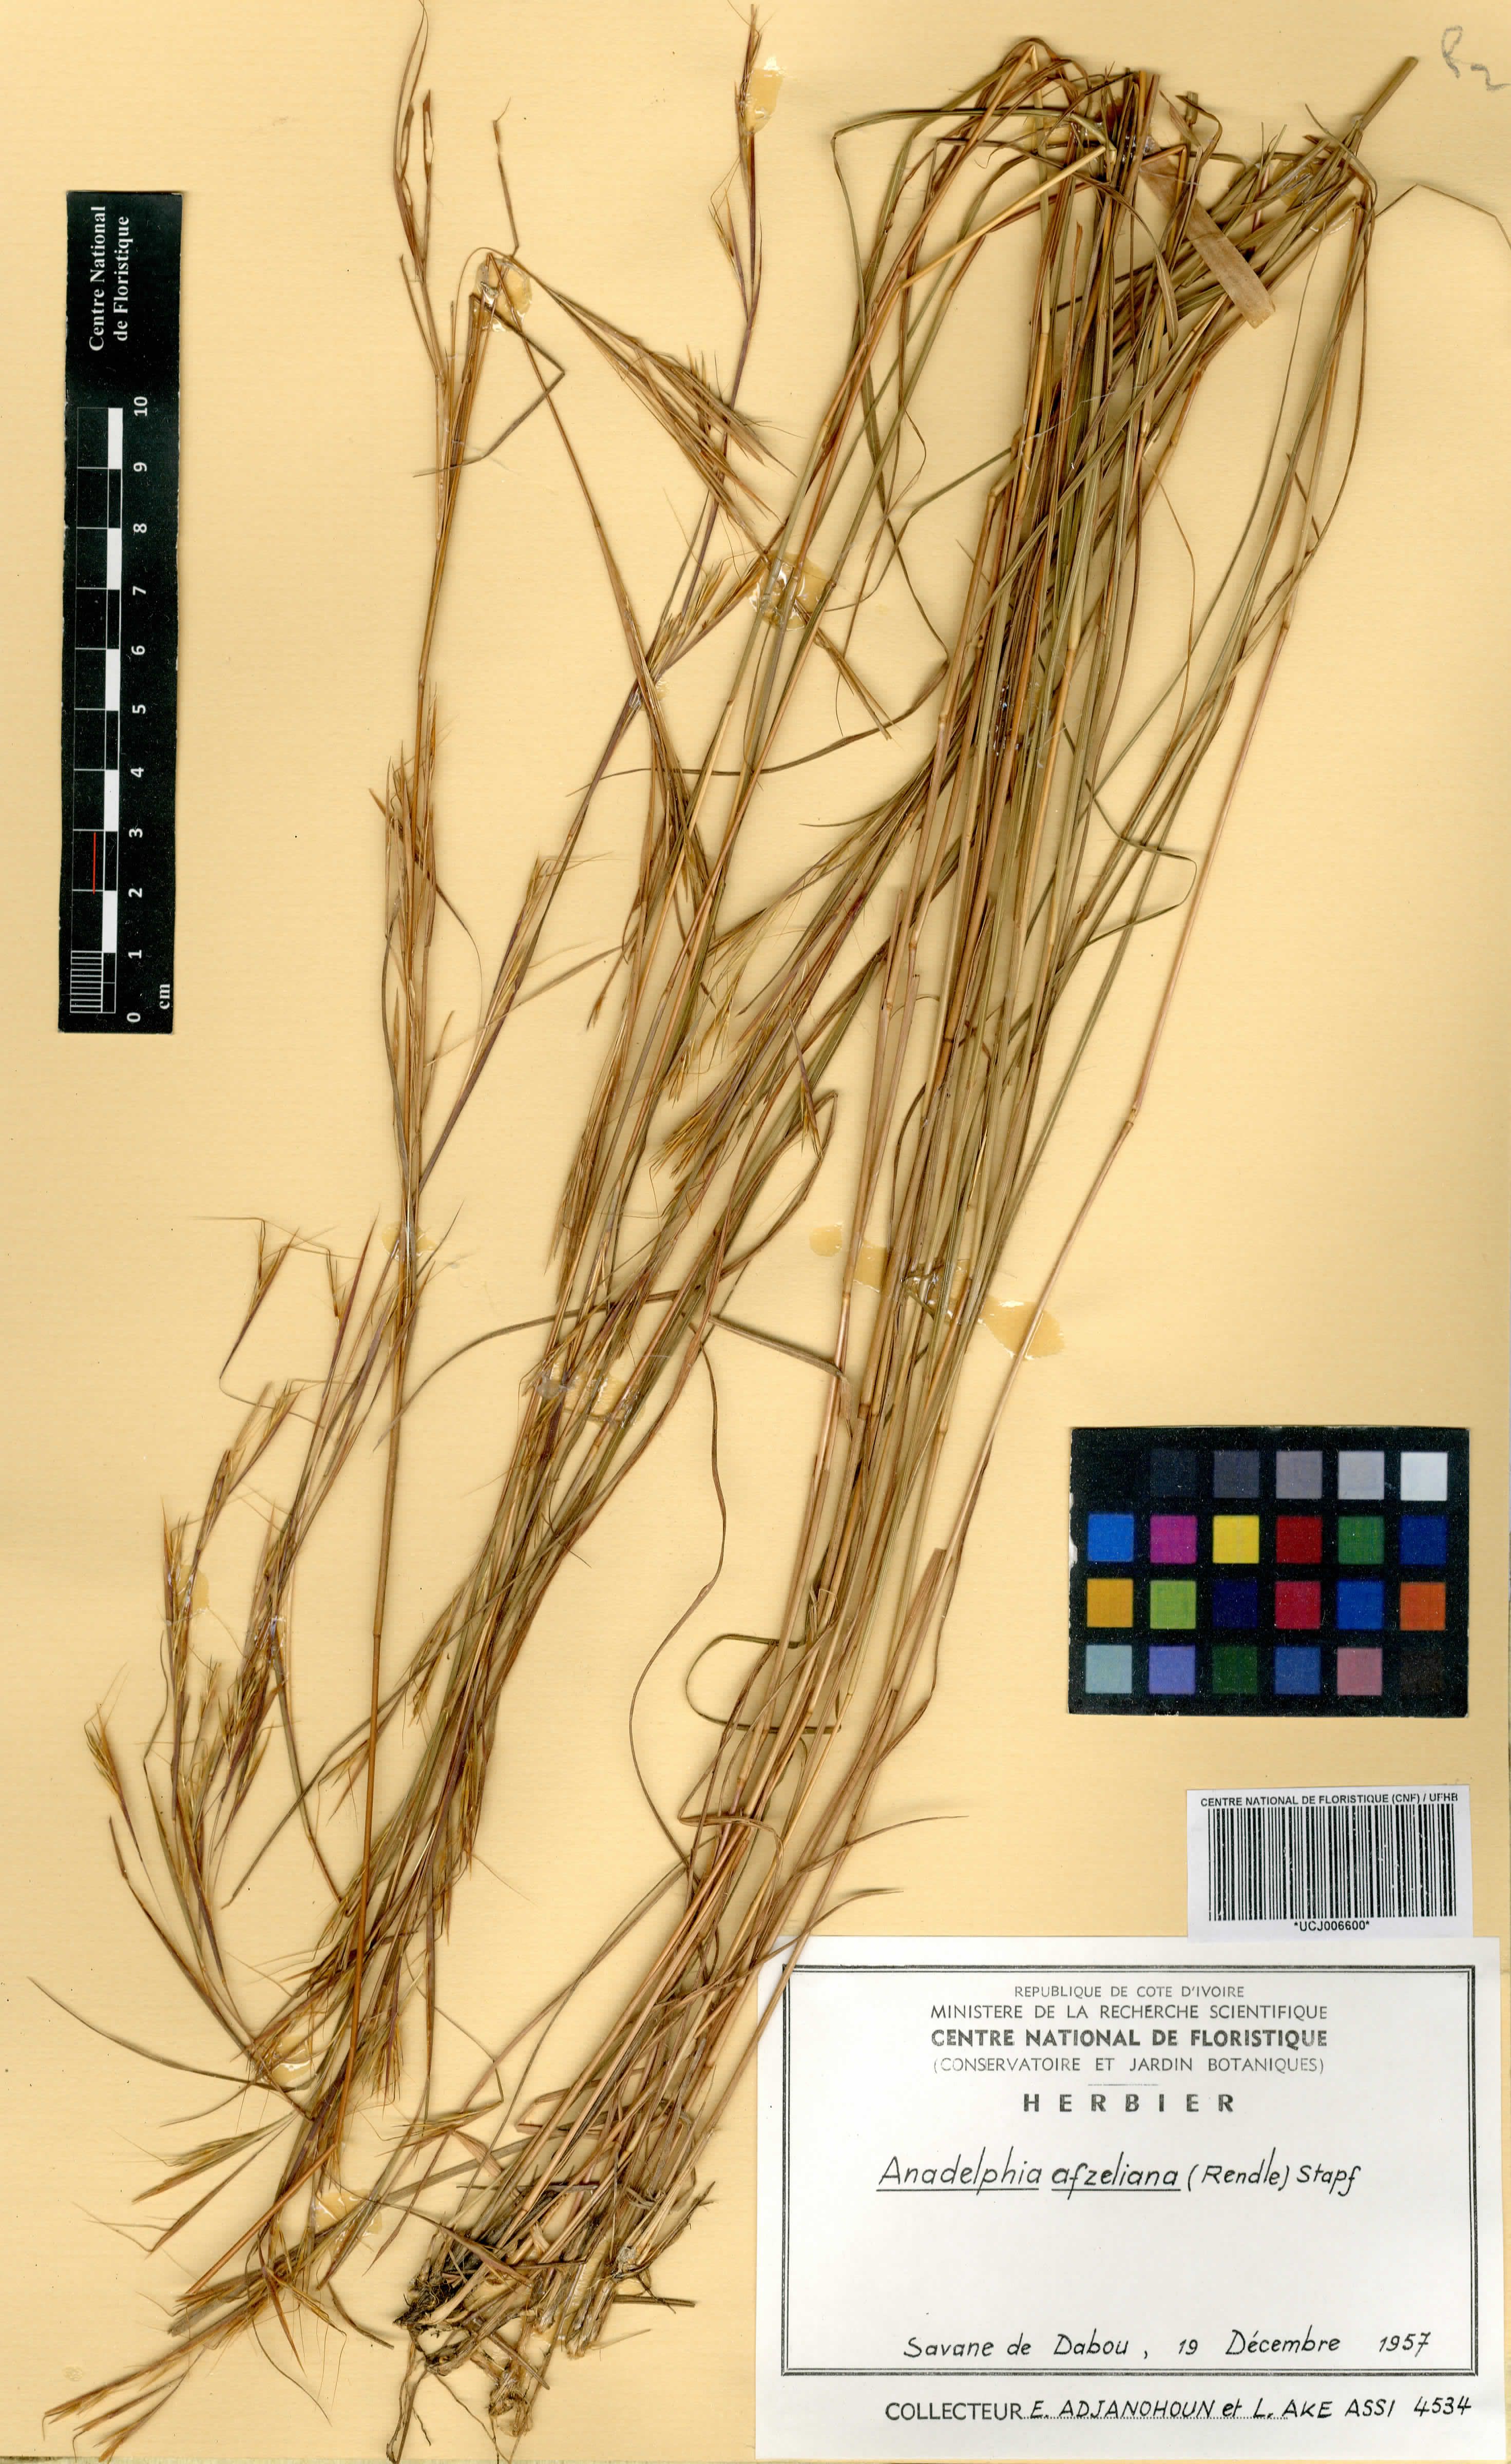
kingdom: Plantae
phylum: Tracheophyta
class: Liliopsida
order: Poales
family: Poaceae
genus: Anadelphia
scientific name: Anadelphia afzeliana
